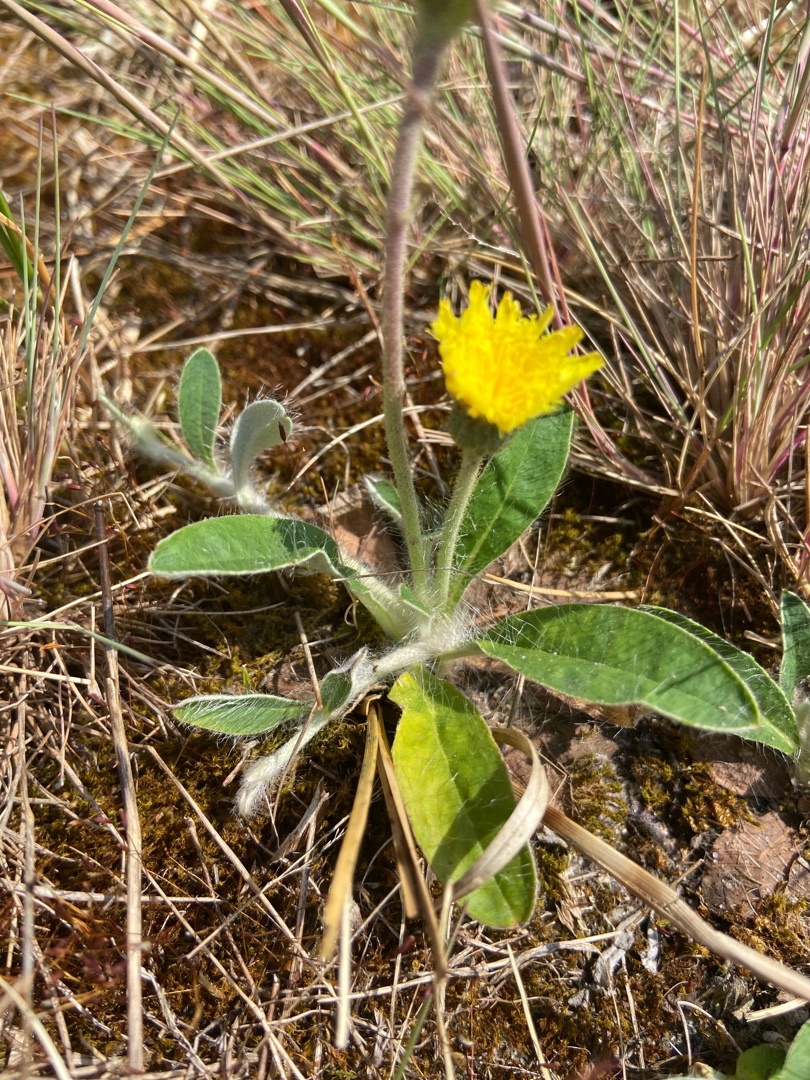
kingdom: Plantae
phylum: Tracheophyta
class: Magnoliopsida
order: Asterales
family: Asteraceae
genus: Pilosella
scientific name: Pilosella officinarum
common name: Håret høgeurt
